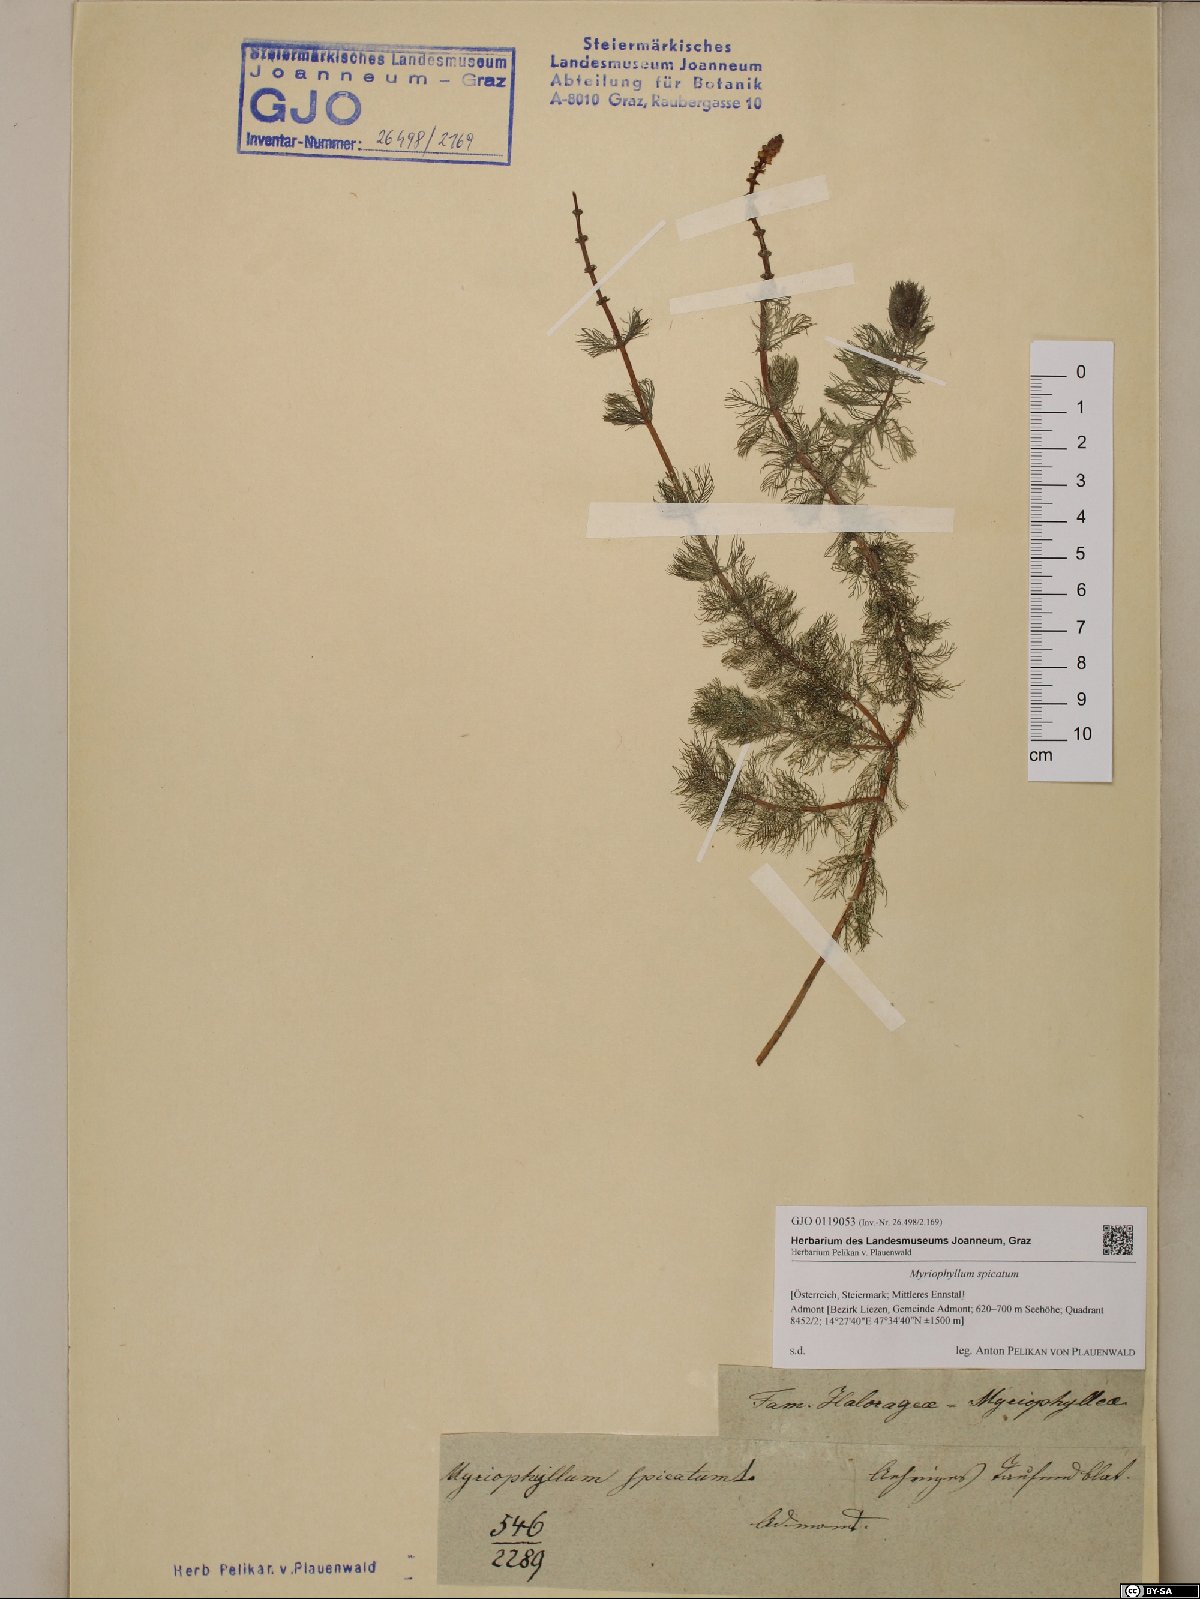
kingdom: Plantae
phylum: Tracheophyta
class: Magnoliopsida
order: Saxifragales
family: Haloragaceae
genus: Myriophyllum
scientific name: Myriophyllum spicatum
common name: Spiked water-milfoil
